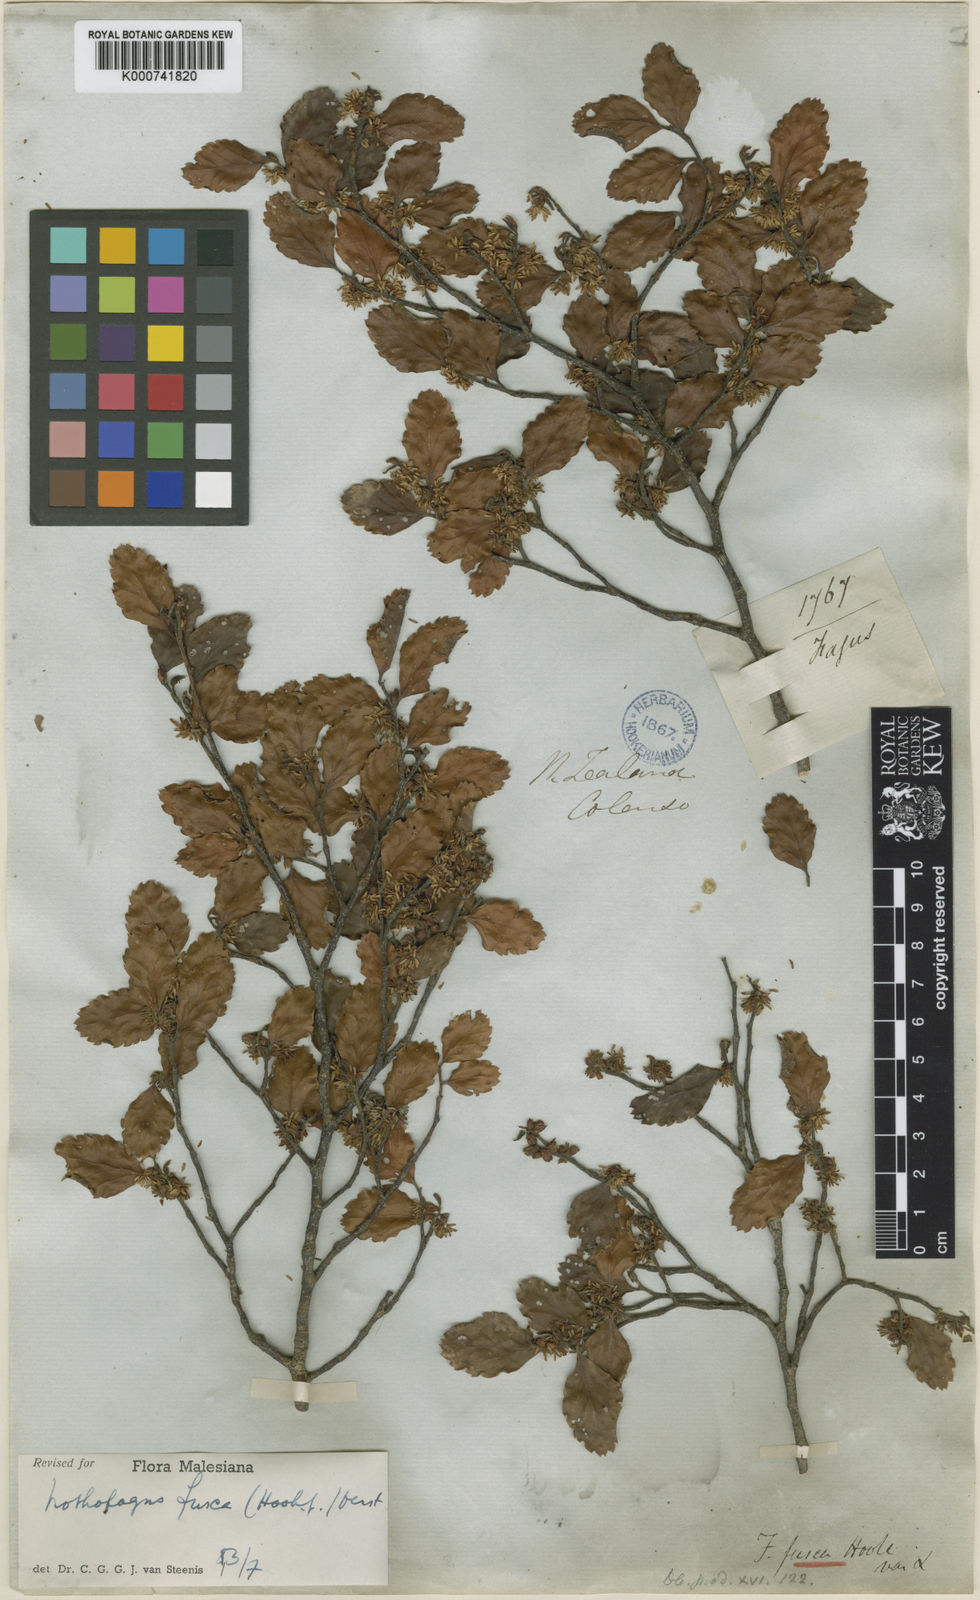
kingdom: Plantae
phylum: Tracheophyta
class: Magnoliopsida
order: Fagales
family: Nothofagaceae
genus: Nothofagus
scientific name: Nothofagus fusca
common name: Red beech
